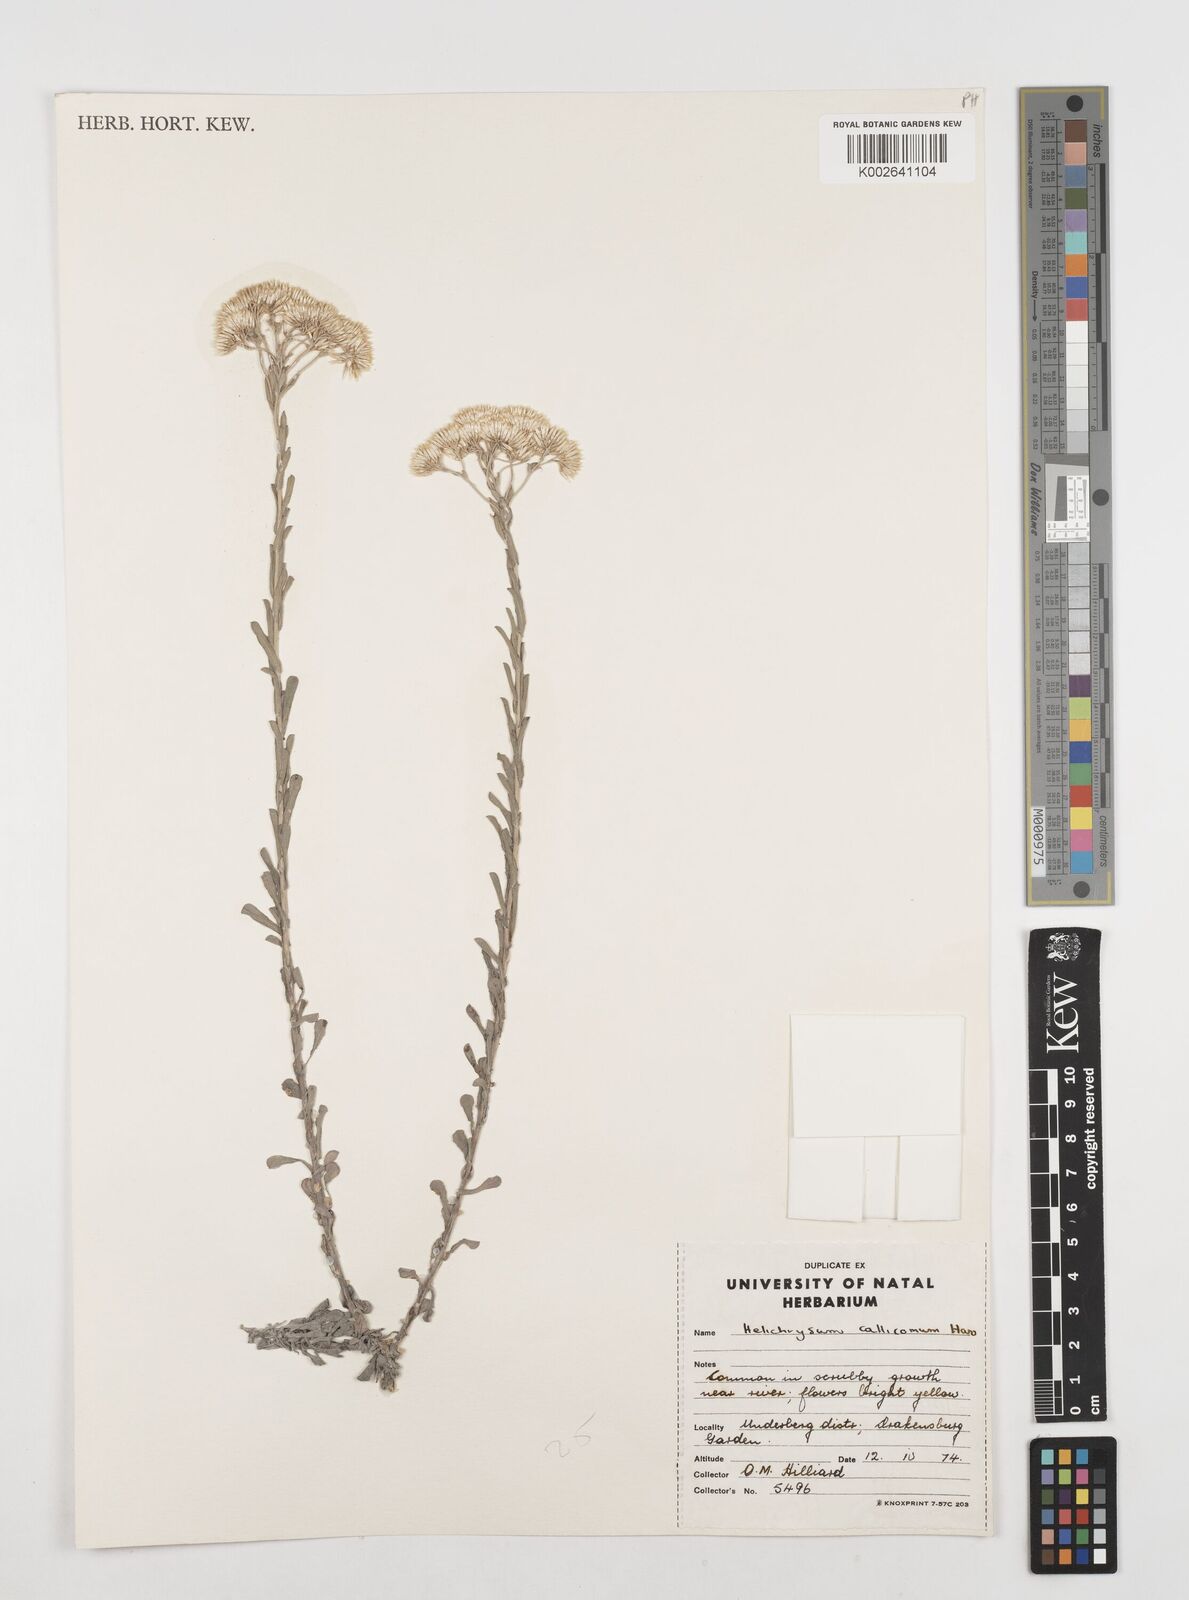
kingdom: Plantae
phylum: Tracheophyta
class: Magnoliopsida
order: Asterales
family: Asteraceae
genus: Helichrysum
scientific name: Helichrysum callicomum
